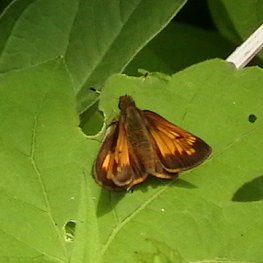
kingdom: Animalia
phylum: Arthropoda
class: Insecta
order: Lepidoptera
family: Hesperiidae
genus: Lon
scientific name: Lon hobomok
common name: Hobomok Skipper
